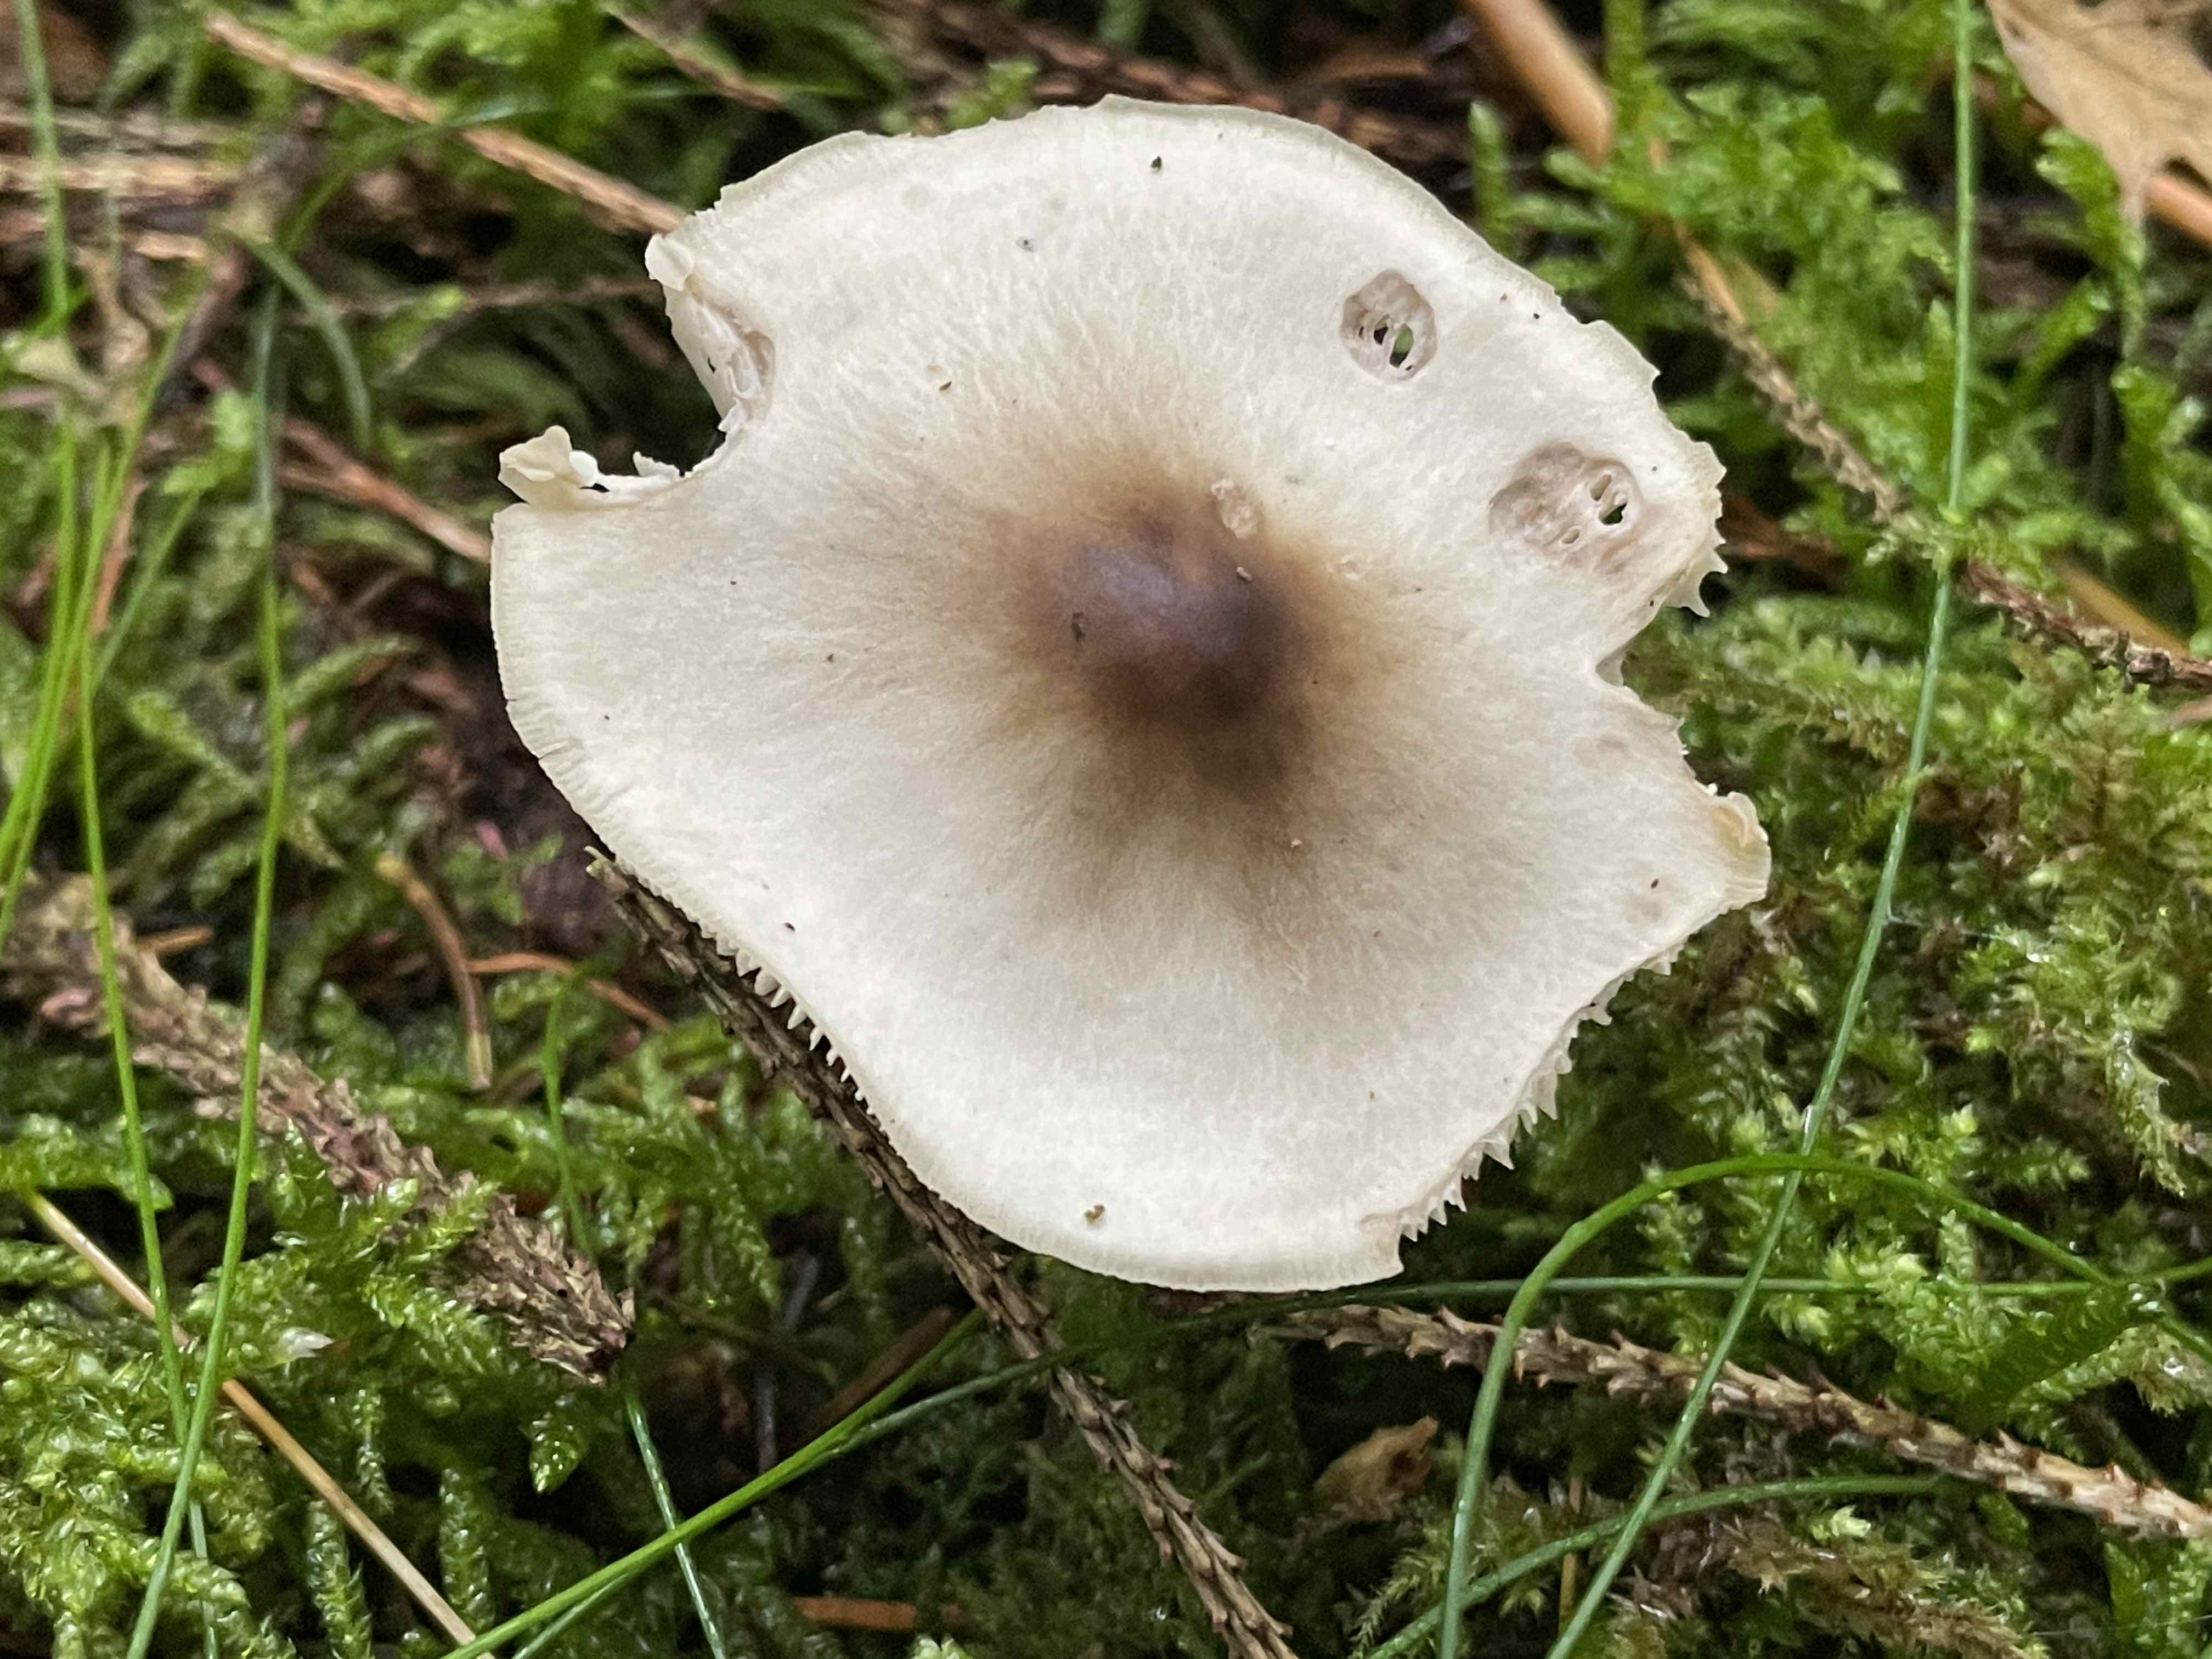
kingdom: Fungi
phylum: Basidiomycota
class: Agaricomycetes
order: Agaricales
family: Omphalotaceae
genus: Rhodocollybia
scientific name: Rhodocollybia asema
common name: horngrå fladhat
